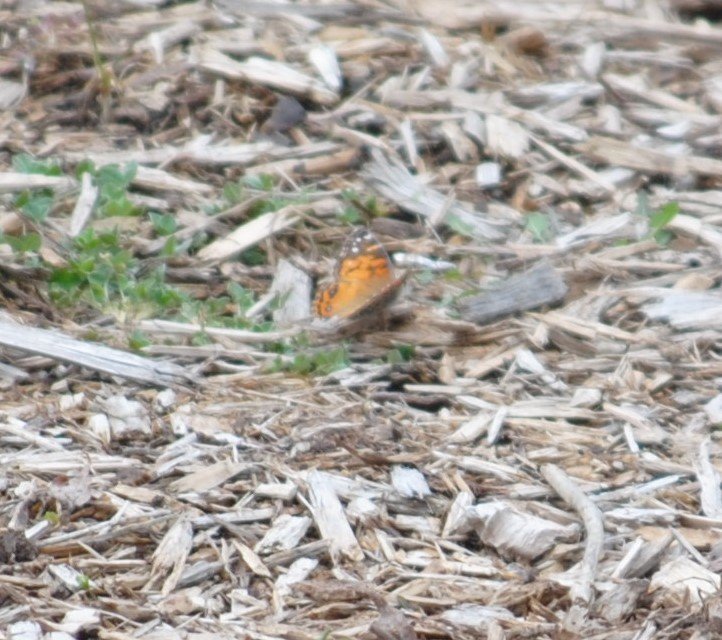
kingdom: Animalia
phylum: Arthropoda
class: Insecta
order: Lepidoptera
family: Nymphalidae
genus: Vanessa
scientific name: Vanessa virginiensis
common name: American Lady
